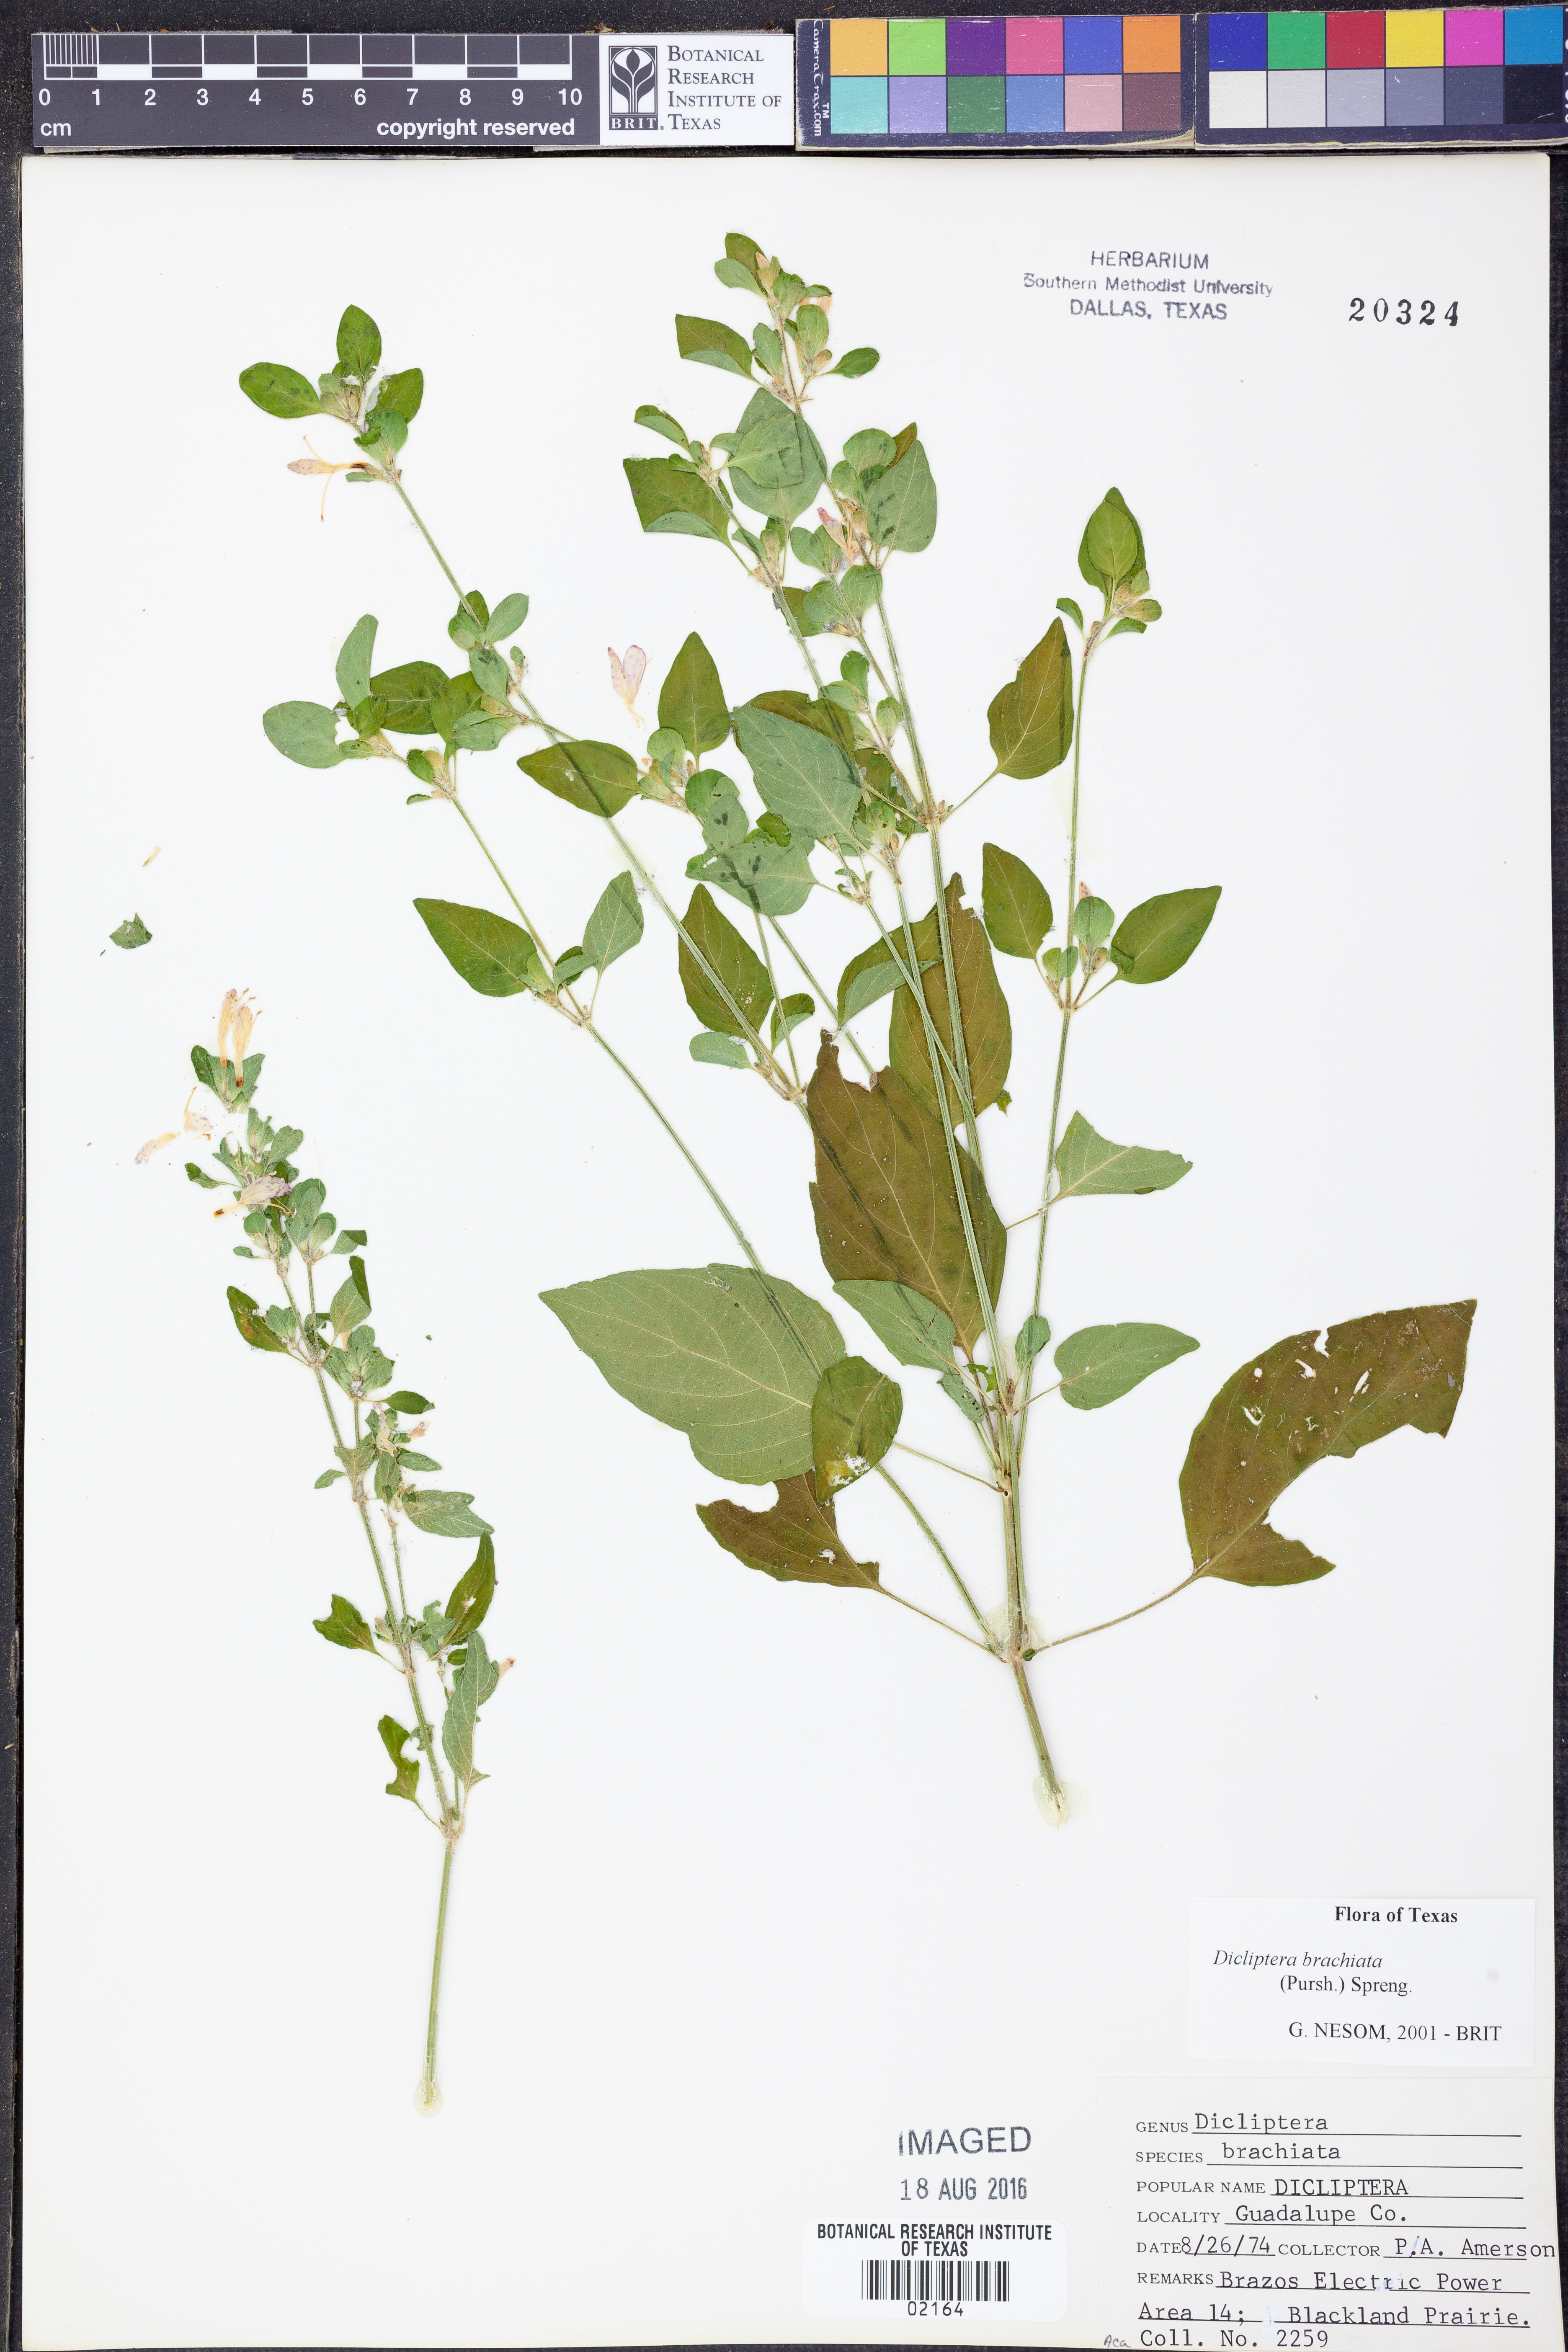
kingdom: Plantae
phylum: Tracheophyta
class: Magnoliopsida
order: Lamiales
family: Acanthaceae
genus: Dicliptera
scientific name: Dicliptera brachiata
